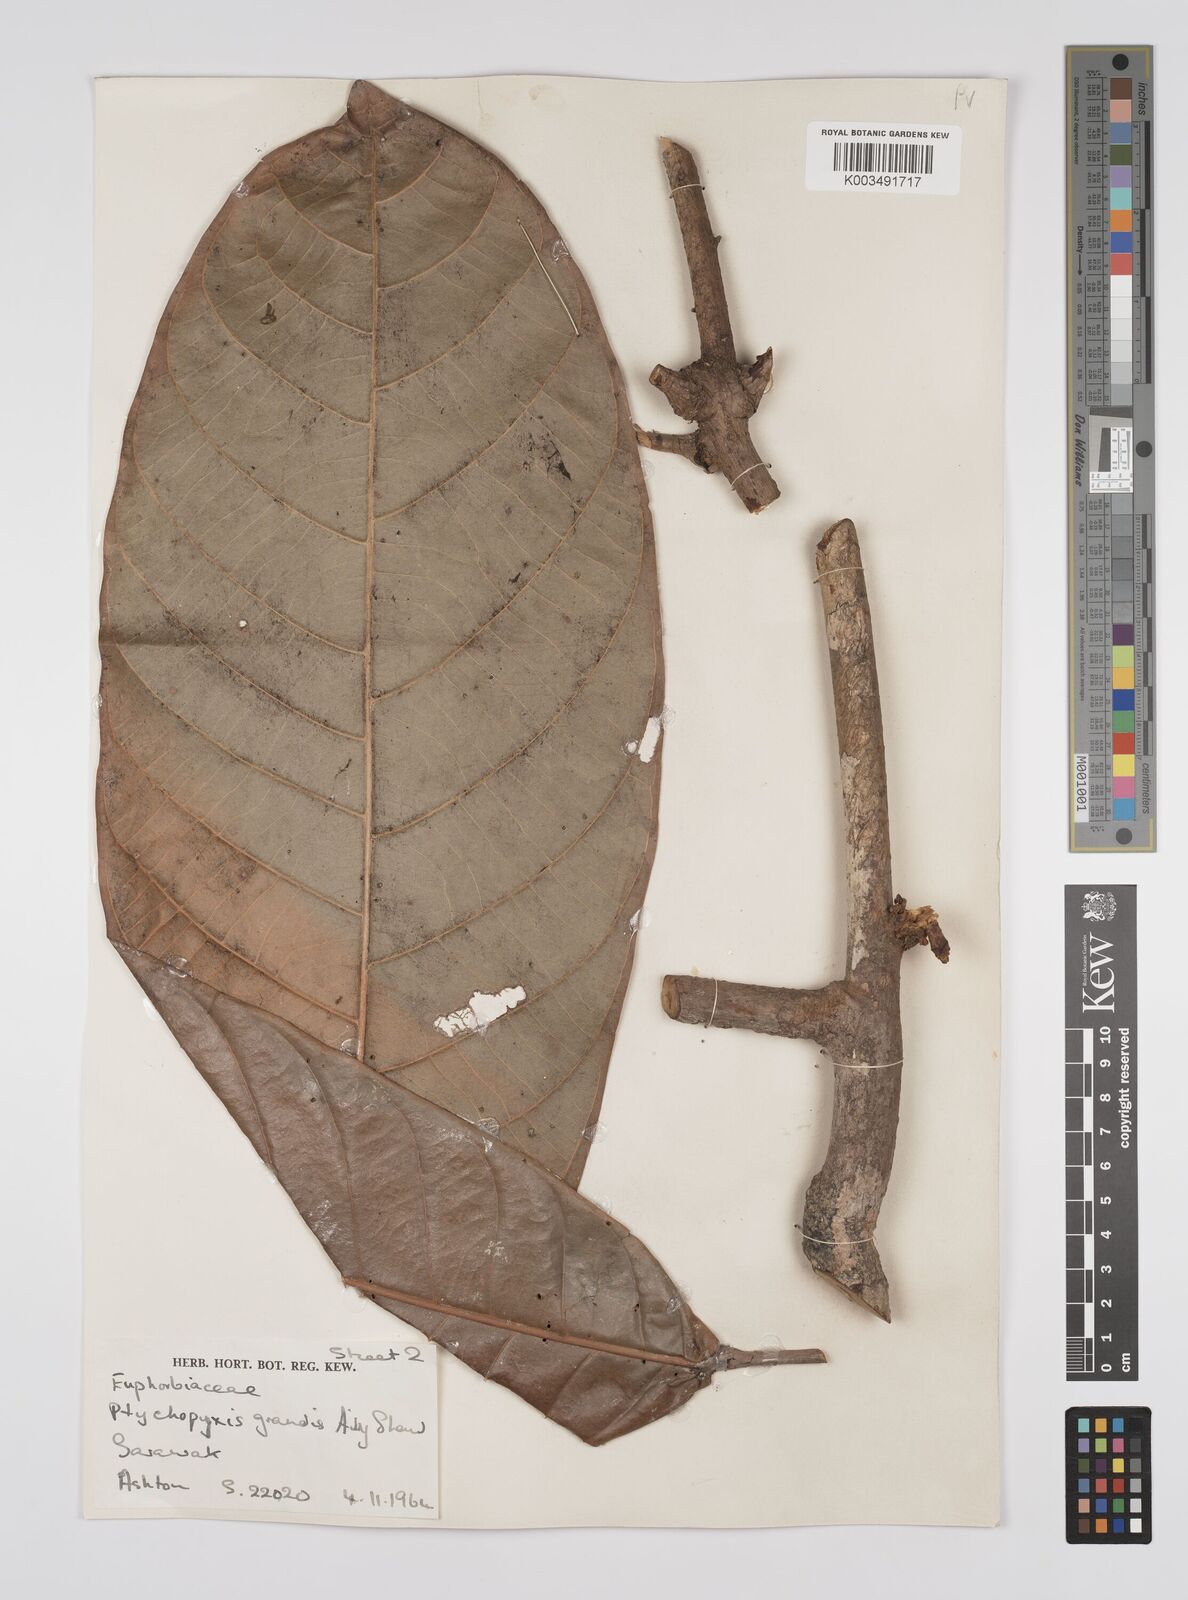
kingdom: Plantae
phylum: Tracheophyta
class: Magnoliopsida
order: Malpighiales
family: Euphorbiaceae
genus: Ptychopyxis
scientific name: Ptychopyxis grandis
